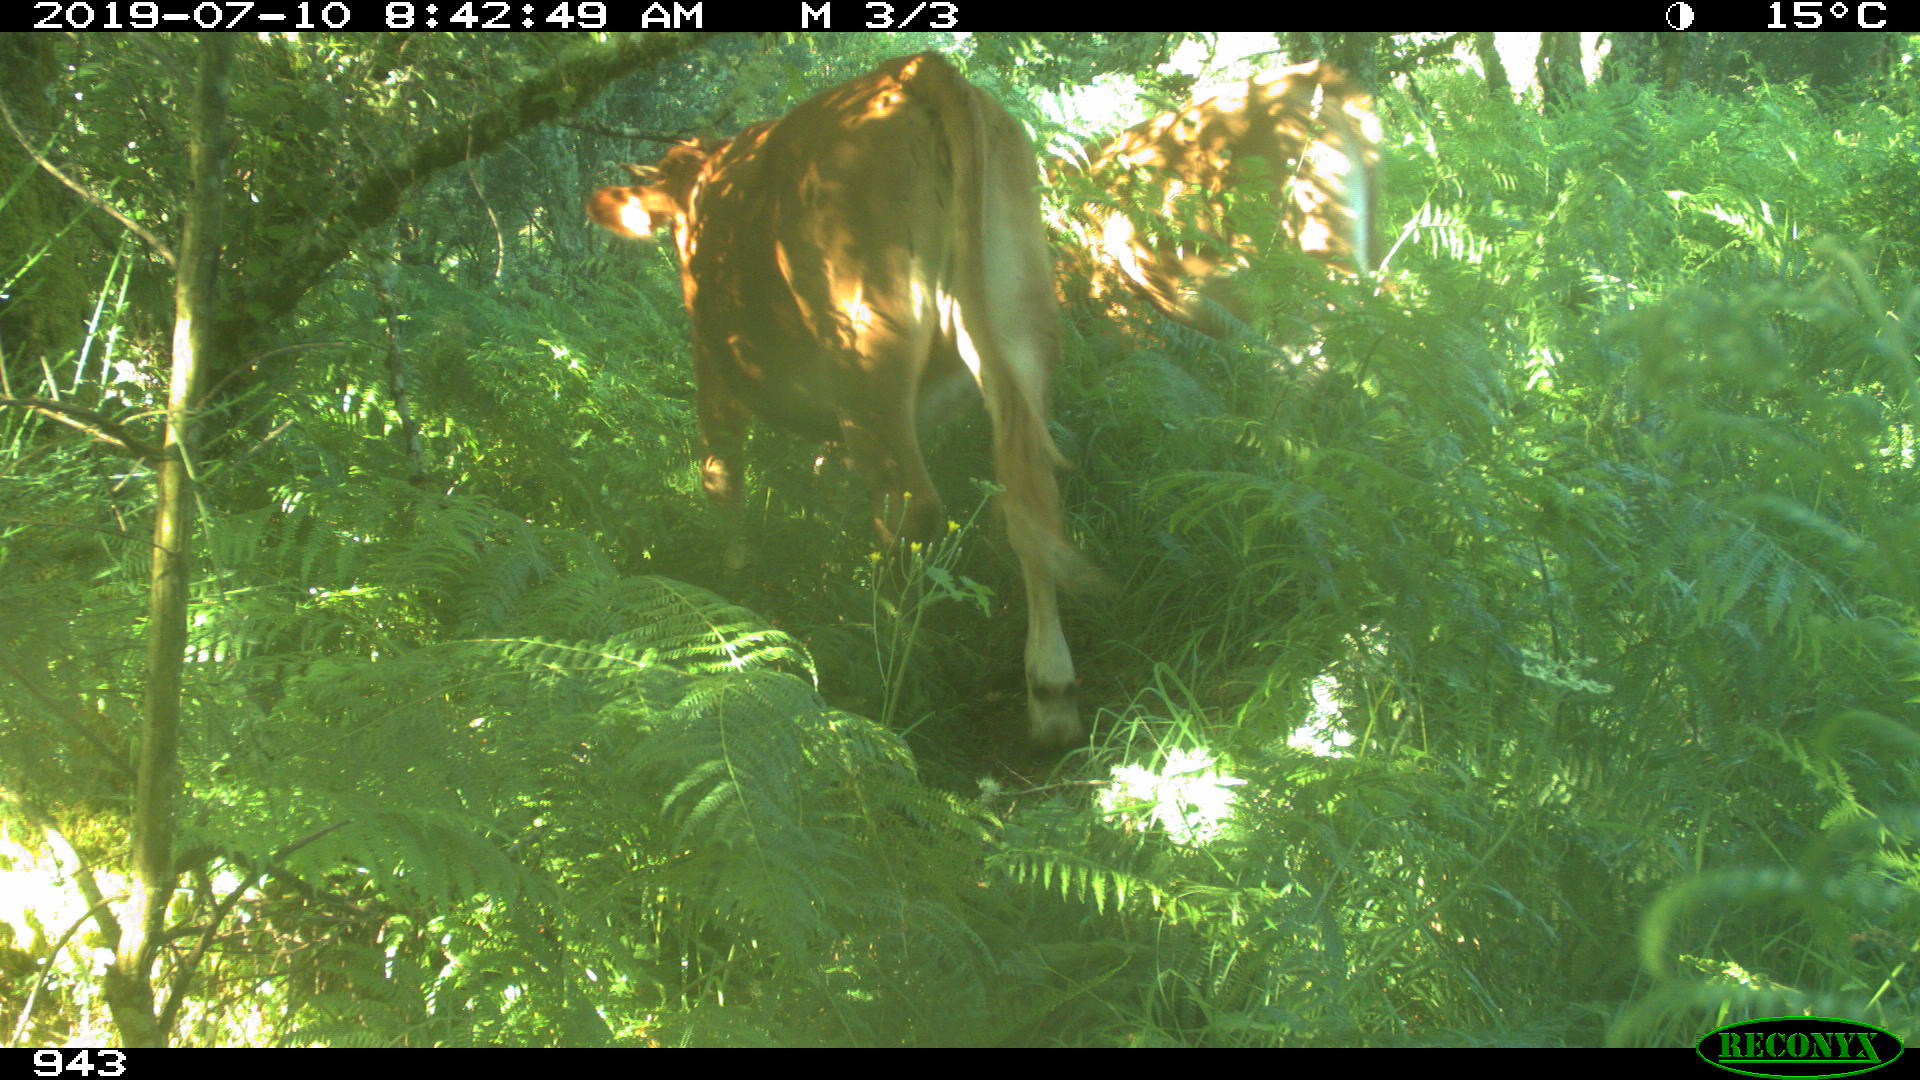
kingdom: Animalia
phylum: Chordata
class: Mammalia
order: Artiodactyla
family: Bovidae
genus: Bos
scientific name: Bos taurus
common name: Domesticated cattle
